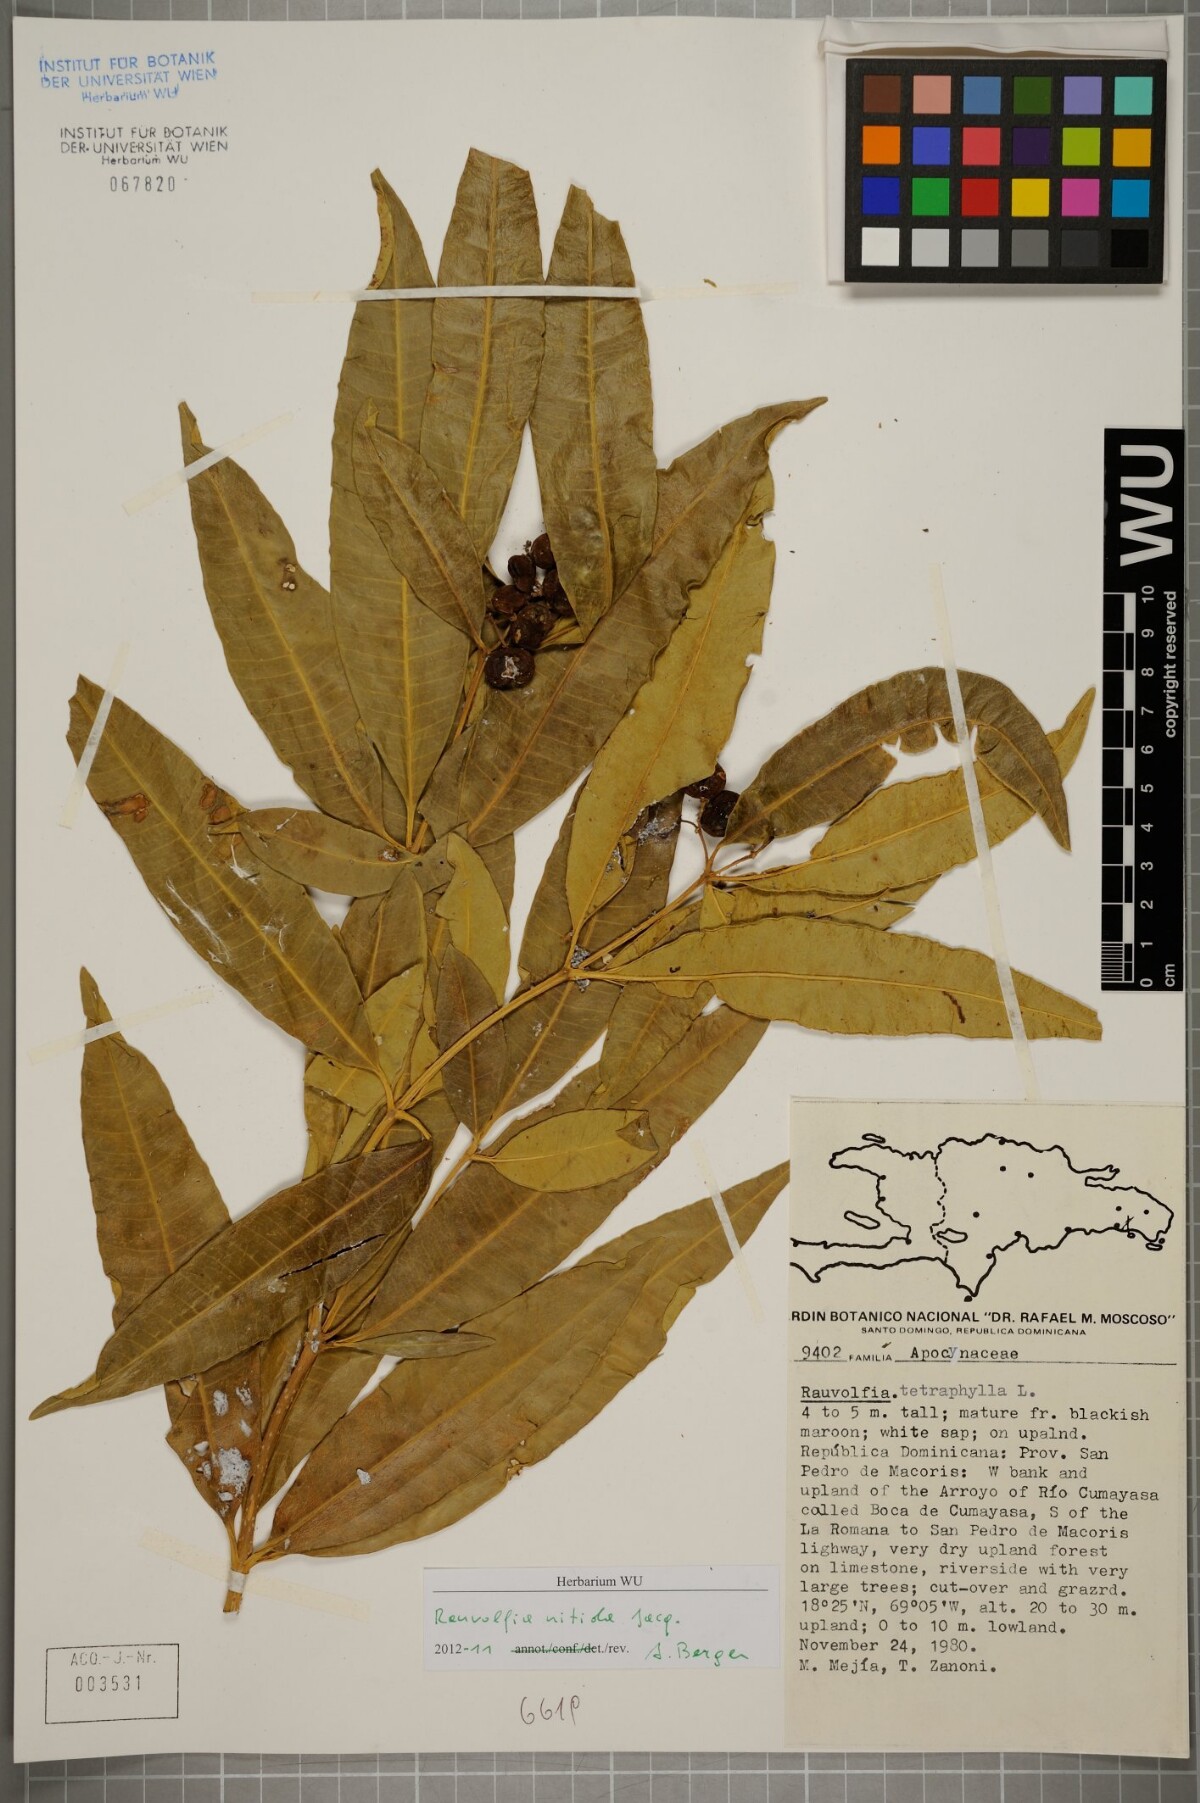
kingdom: Plantae
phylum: Tracheophyta
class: Magnoliopsida
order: Gentianales
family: Apocynaceae
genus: Rauvolfia
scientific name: Rauvolfia nitida
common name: Bitter-ash
